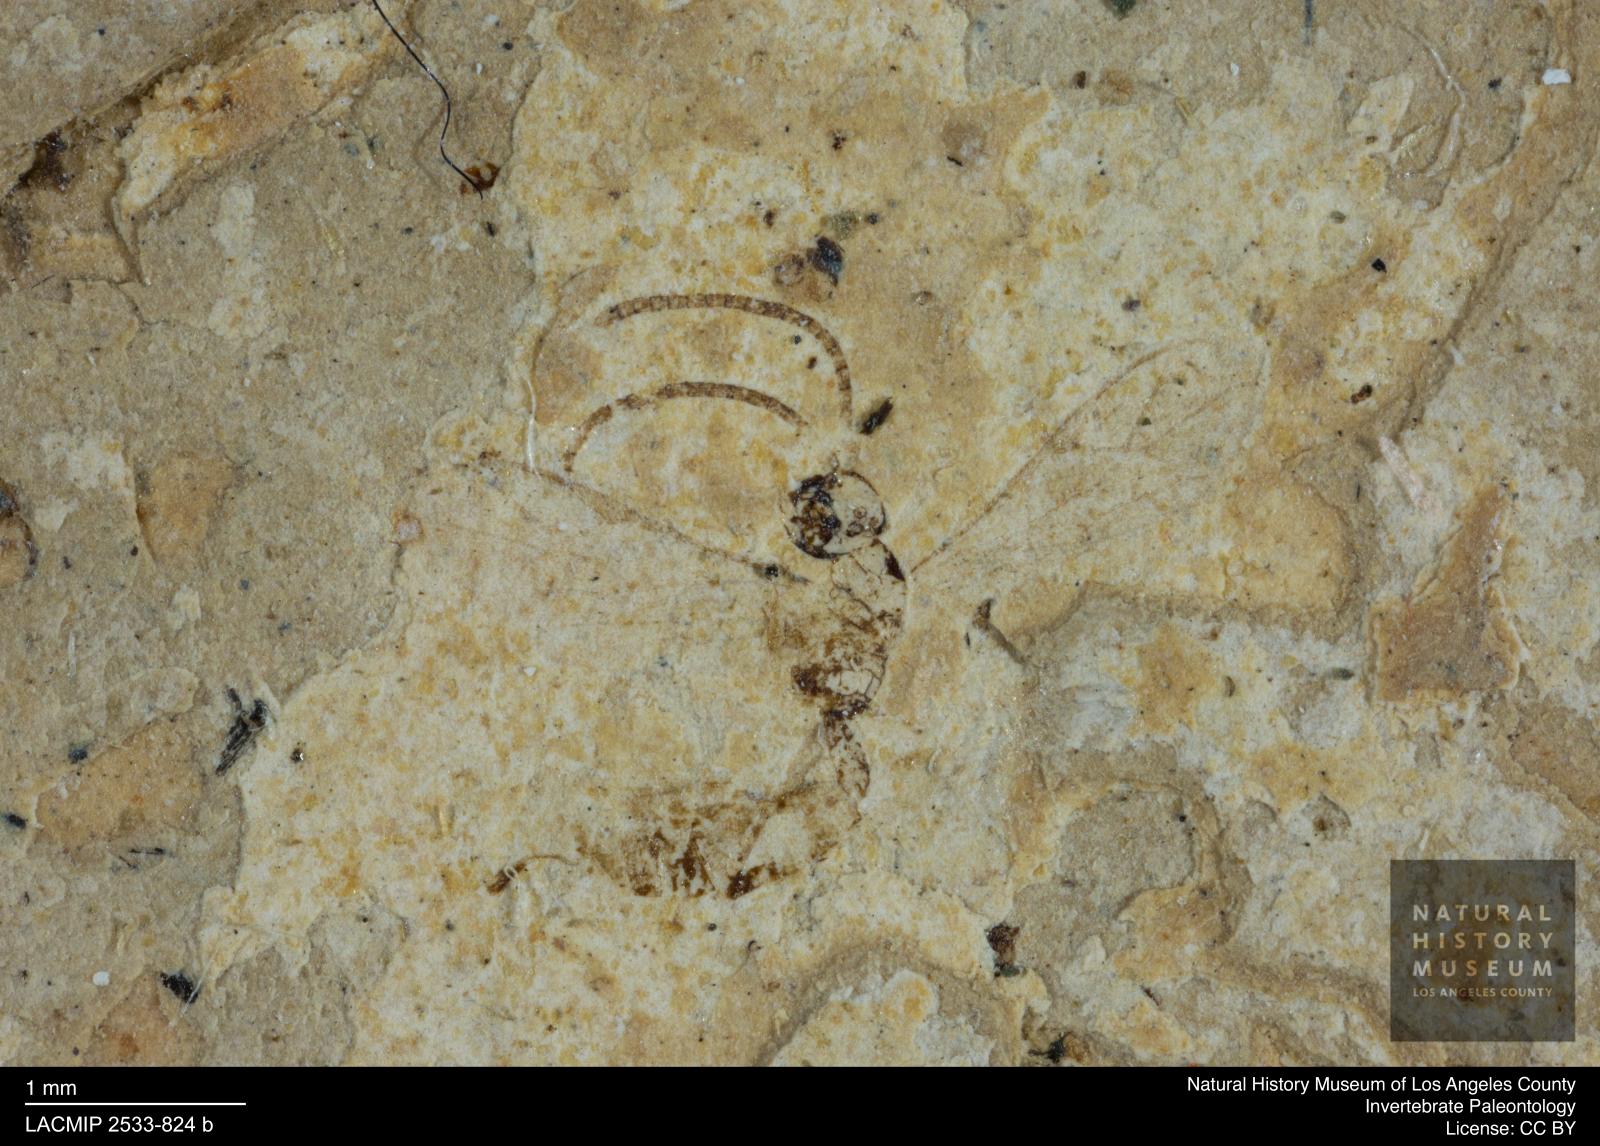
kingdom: Animalia
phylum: Arthropoda
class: Insecta
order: Hymenoptera
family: Ichneumonidae
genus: Campoplex
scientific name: Campoplex parvulus
